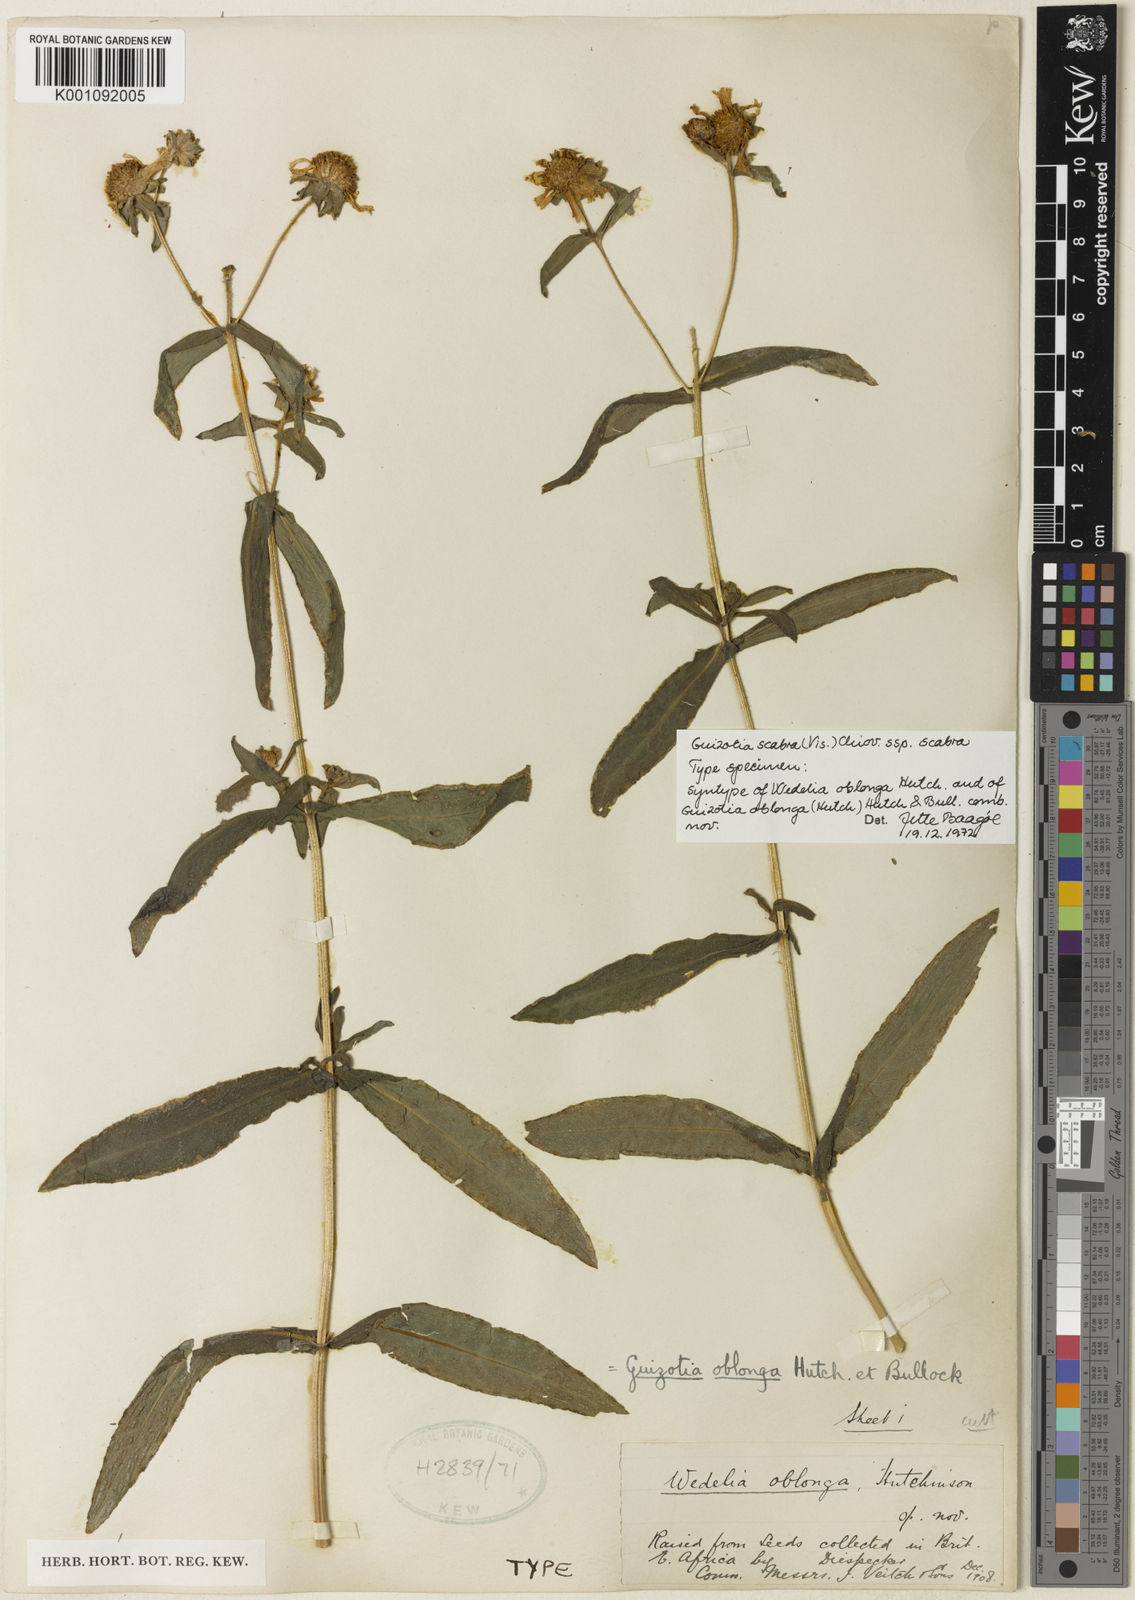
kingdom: Plantae
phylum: Tracheophyta
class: Magnoliopsida
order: Asterales
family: Asteraceae
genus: Guizotia
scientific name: Guizotia scabra
